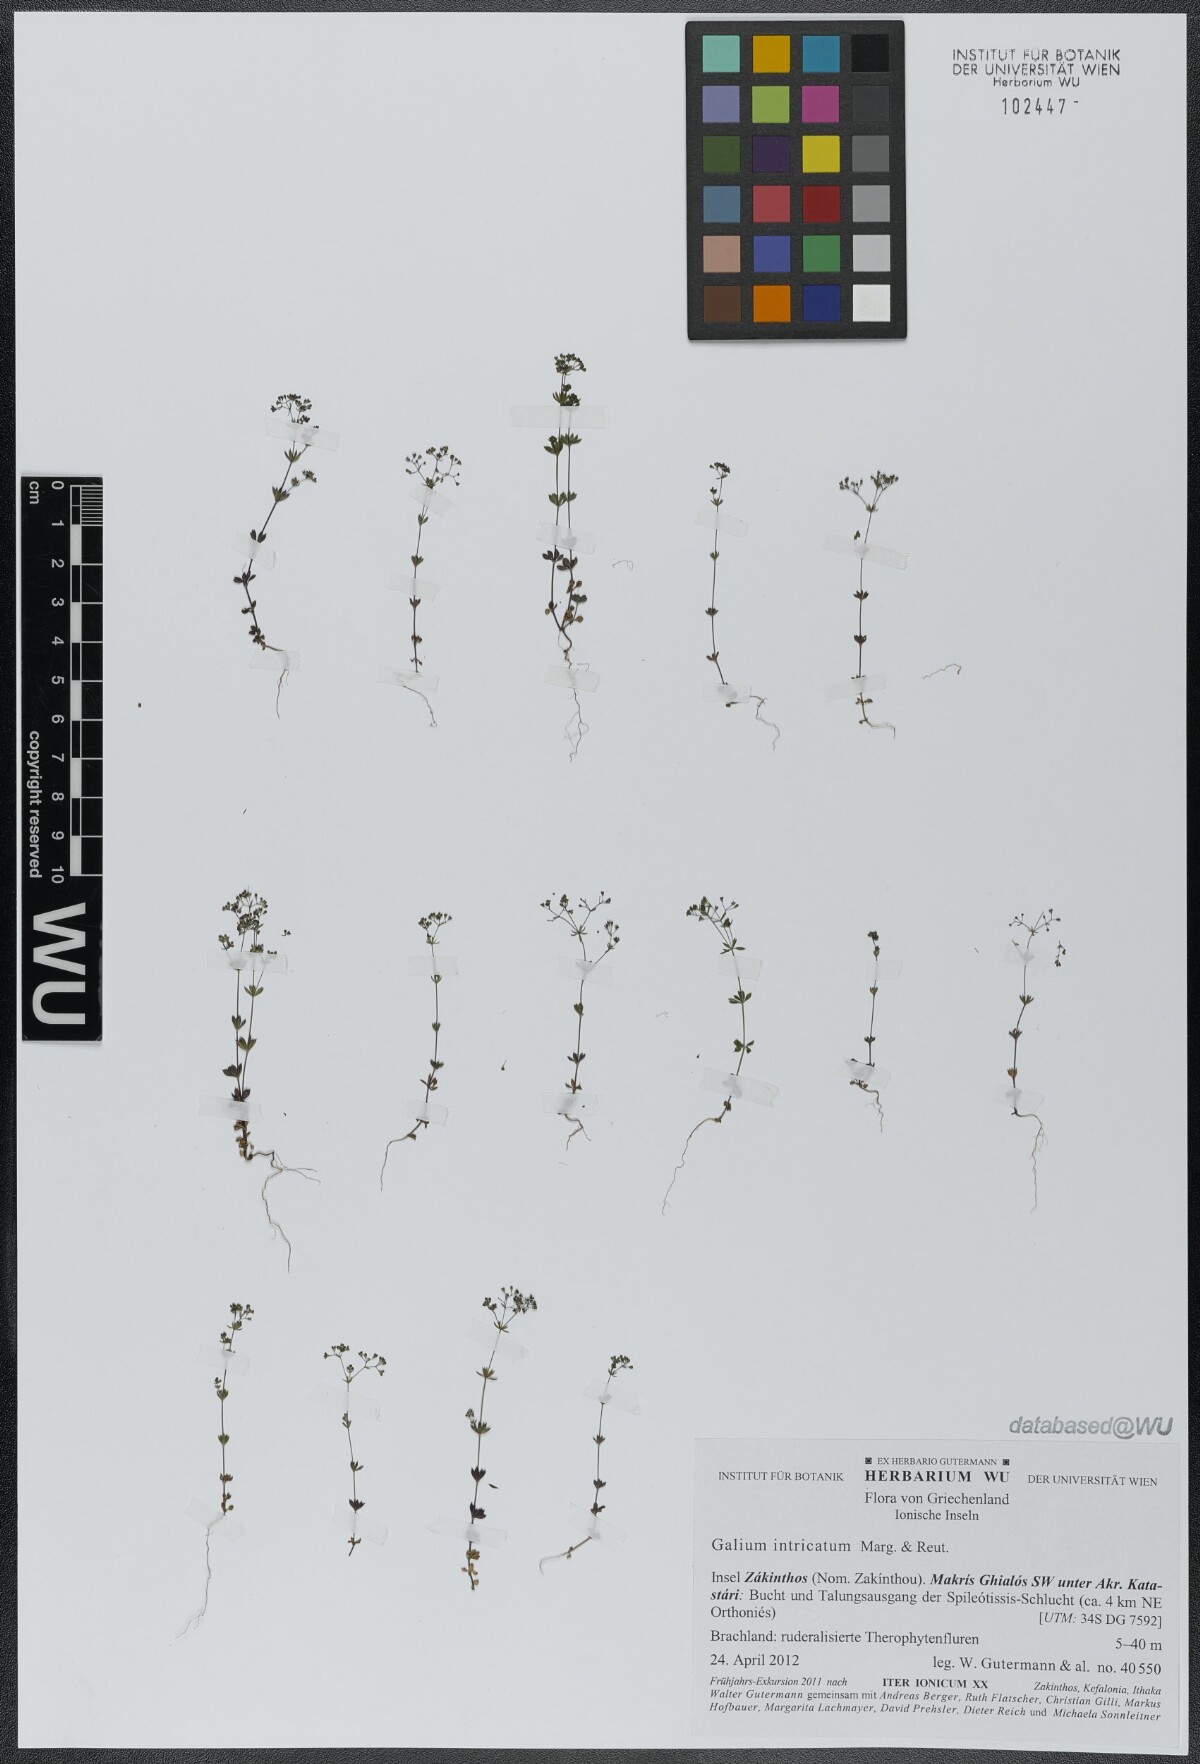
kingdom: Plantae
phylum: Tracheophyta
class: Magnoliopsida
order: Gentianales
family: Rubiaceae
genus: Galium
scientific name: Galium intricatum
